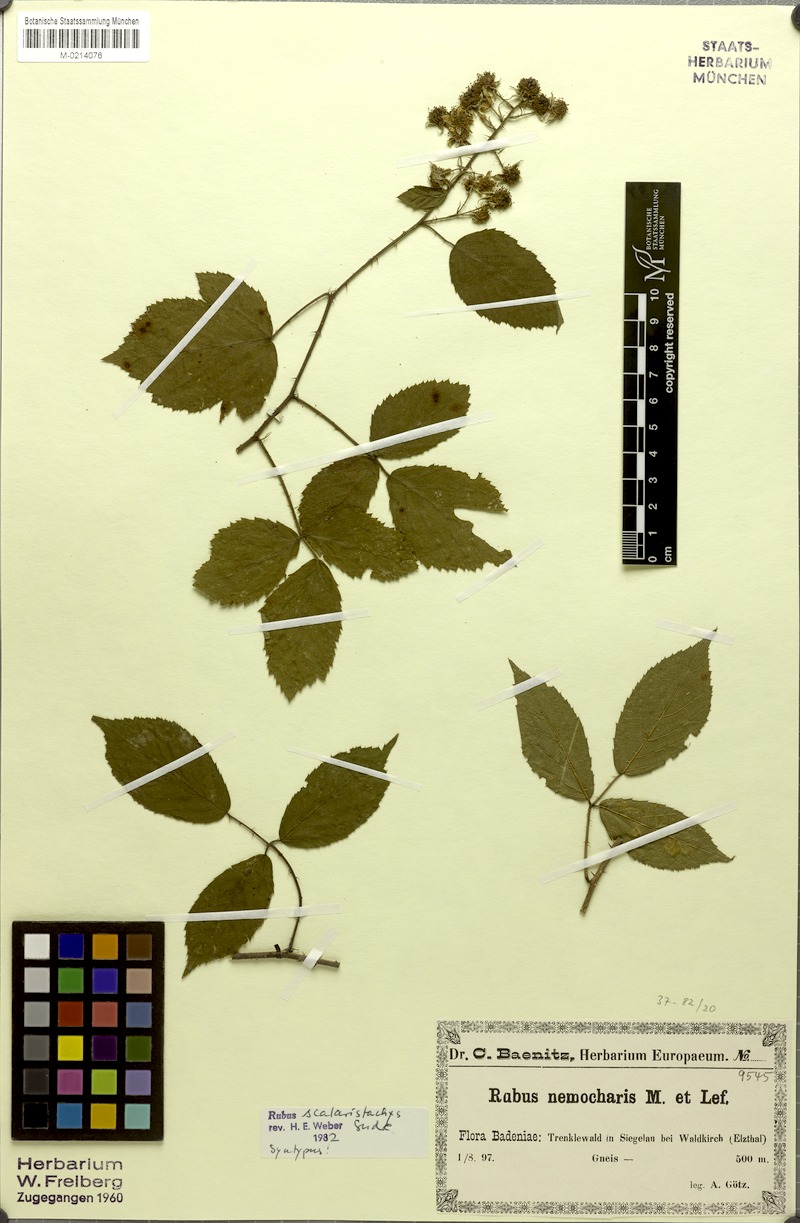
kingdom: Plantae
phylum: Tracheophyta
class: Magnoliopsida
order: Rosales
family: Rosaceae
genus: Rubus
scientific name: Rubus distractus
